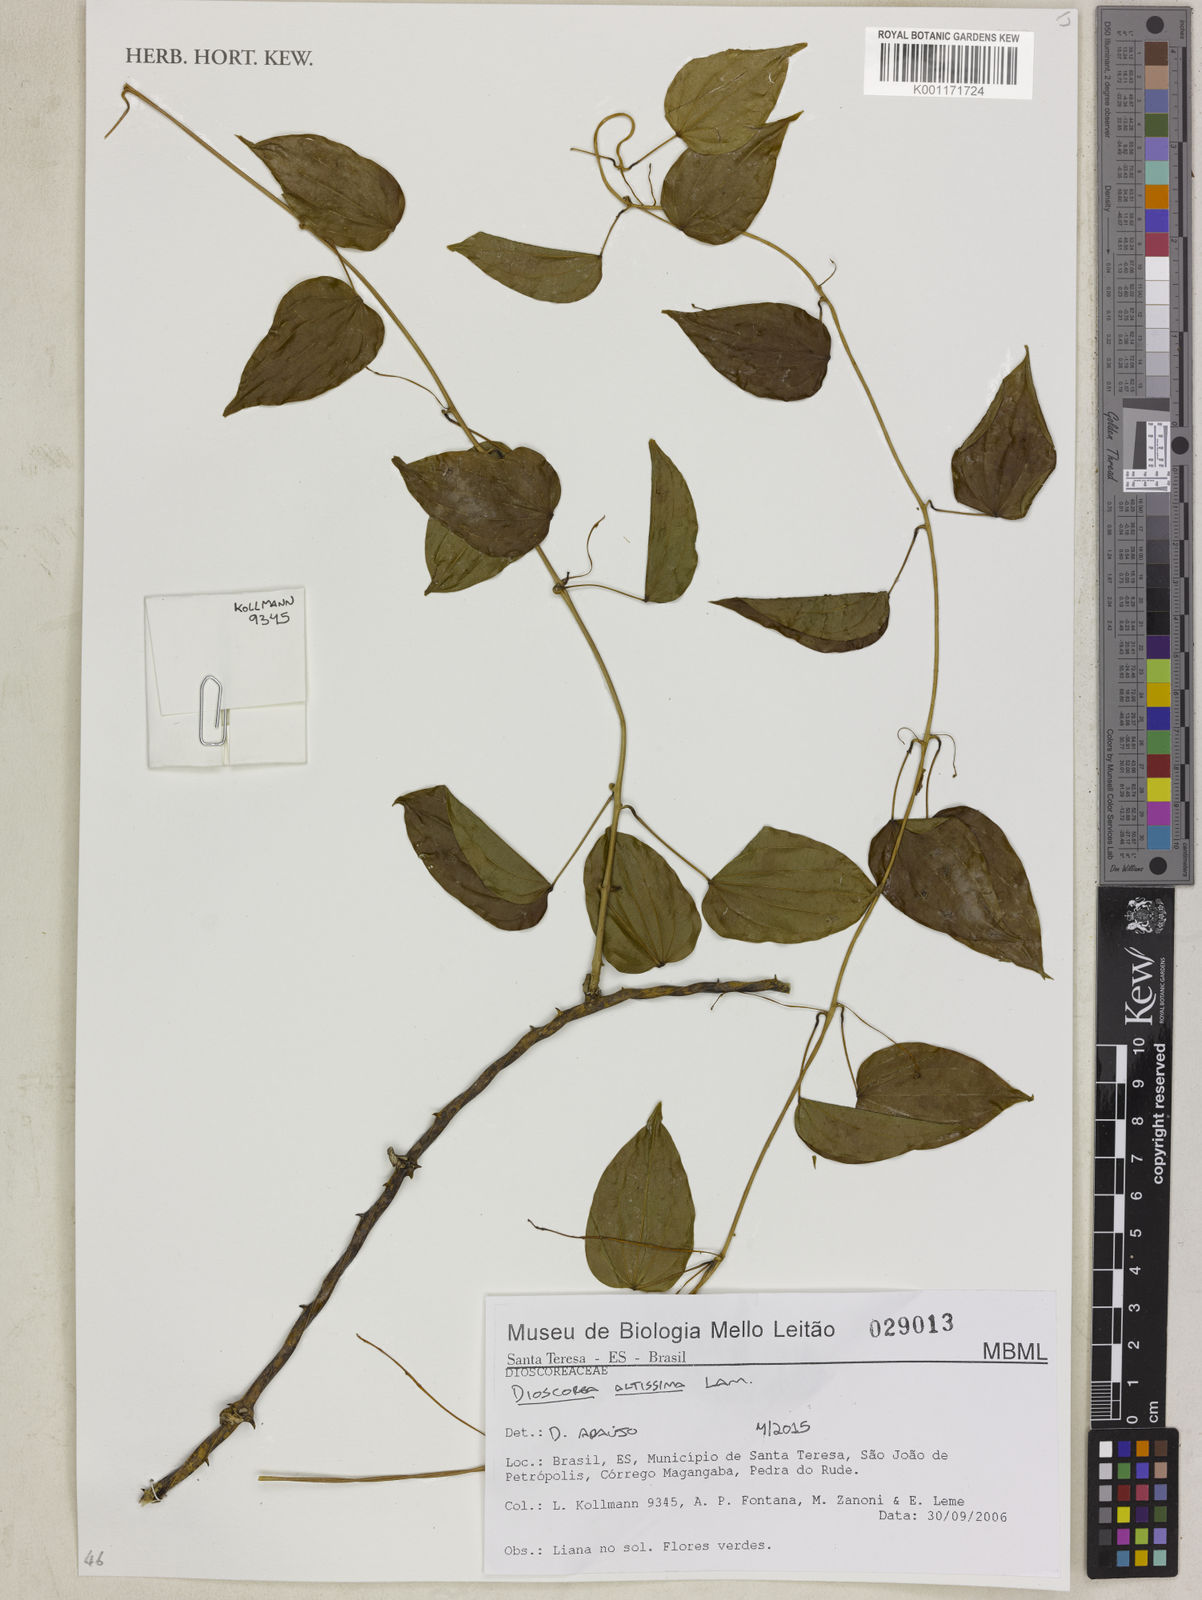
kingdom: Plantae
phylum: Tracheophyta
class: Liliopsida
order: Dioscoreales
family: Dioscoreaceae
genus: Dioscorea
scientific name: Dioscorea chondrocarpa
